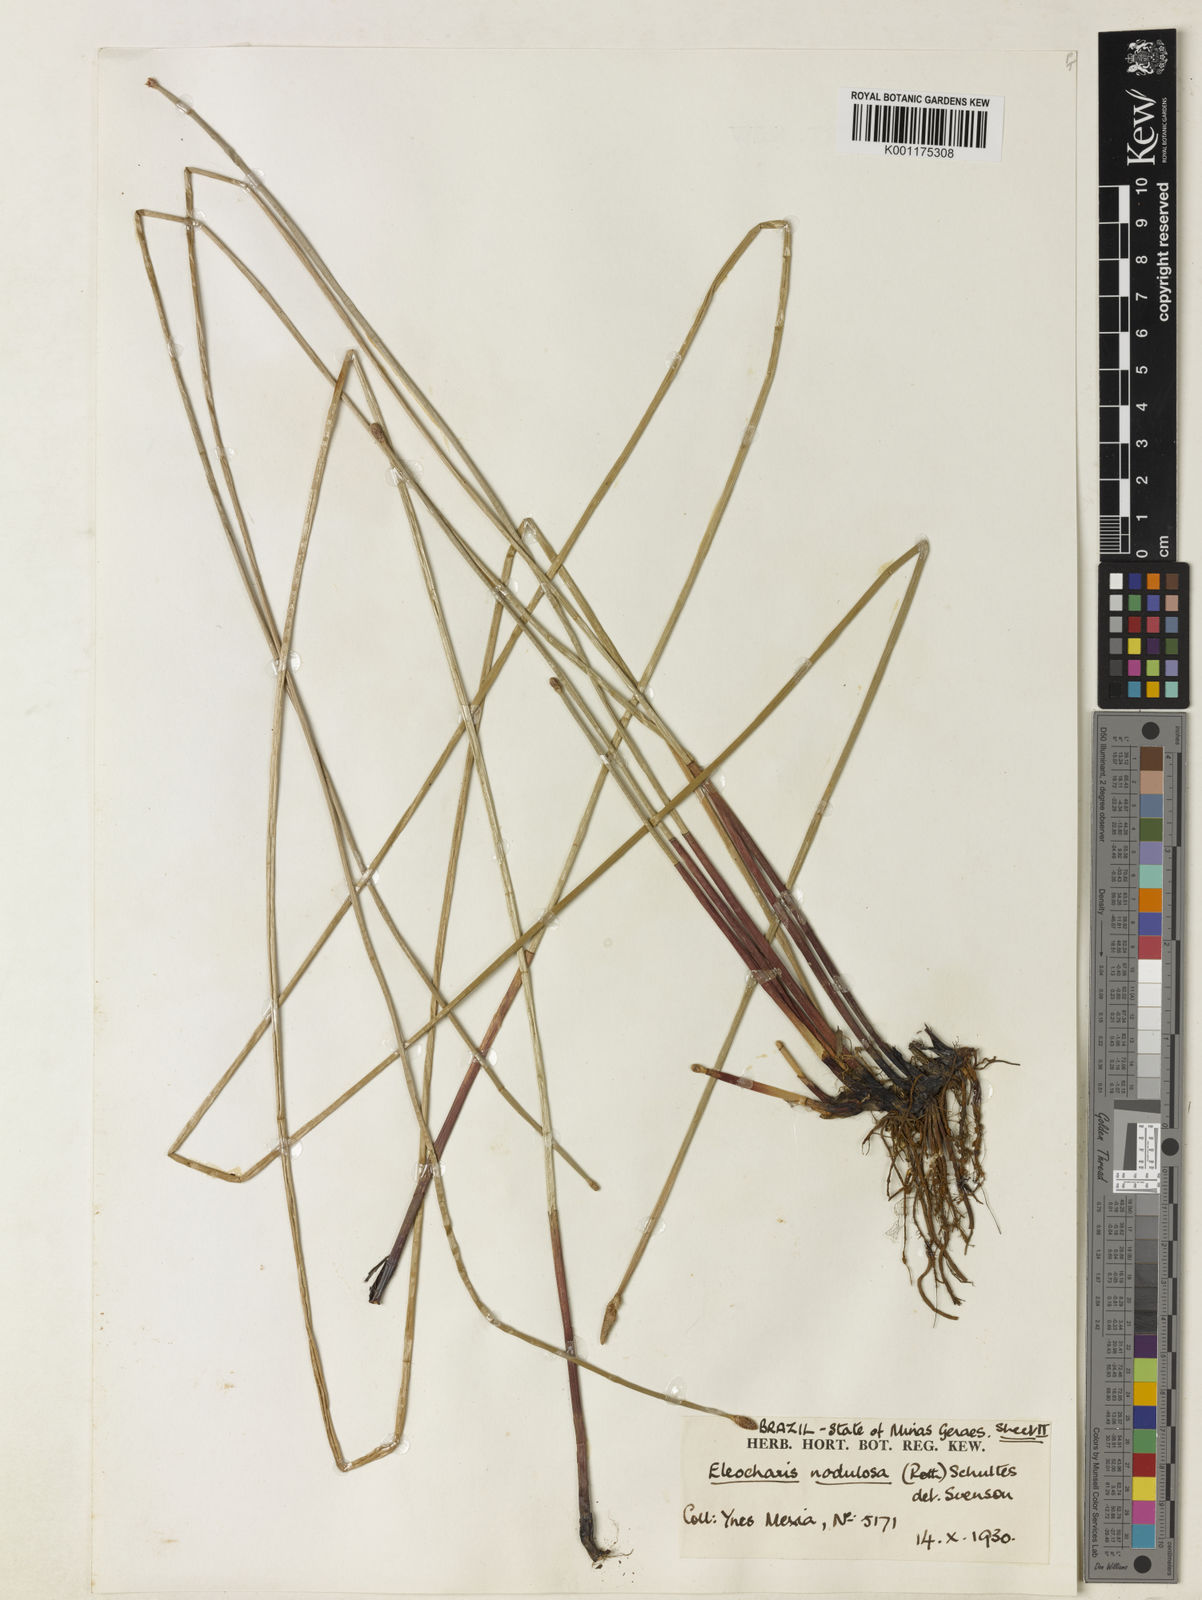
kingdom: Plantae
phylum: Tracheophyta
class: Liliopsida
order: Poales
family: Cyperaceae
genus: Eleocharis
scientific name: Eleocharis montana
